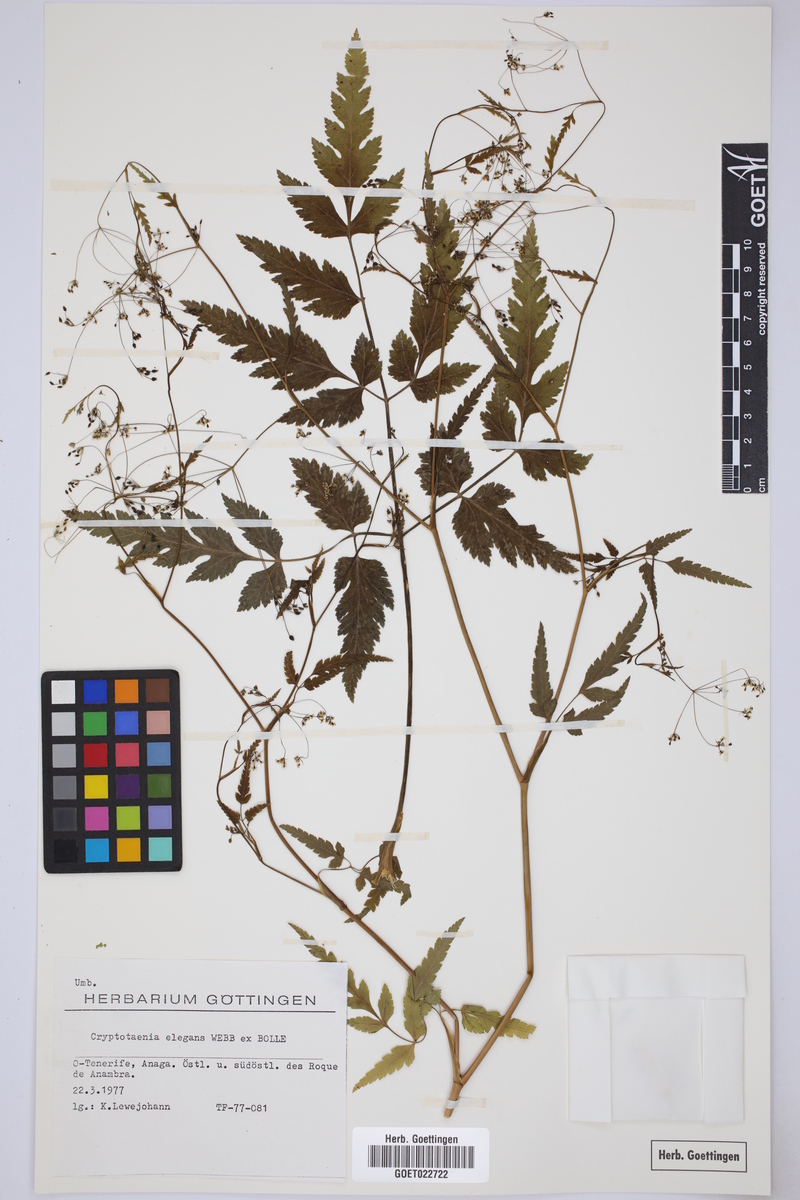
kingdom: Plantae
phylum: Tracheophyta
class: Magnoliopsida
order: Apiales
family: Apiaceae
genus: Daucus
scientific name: Daucus elegans
